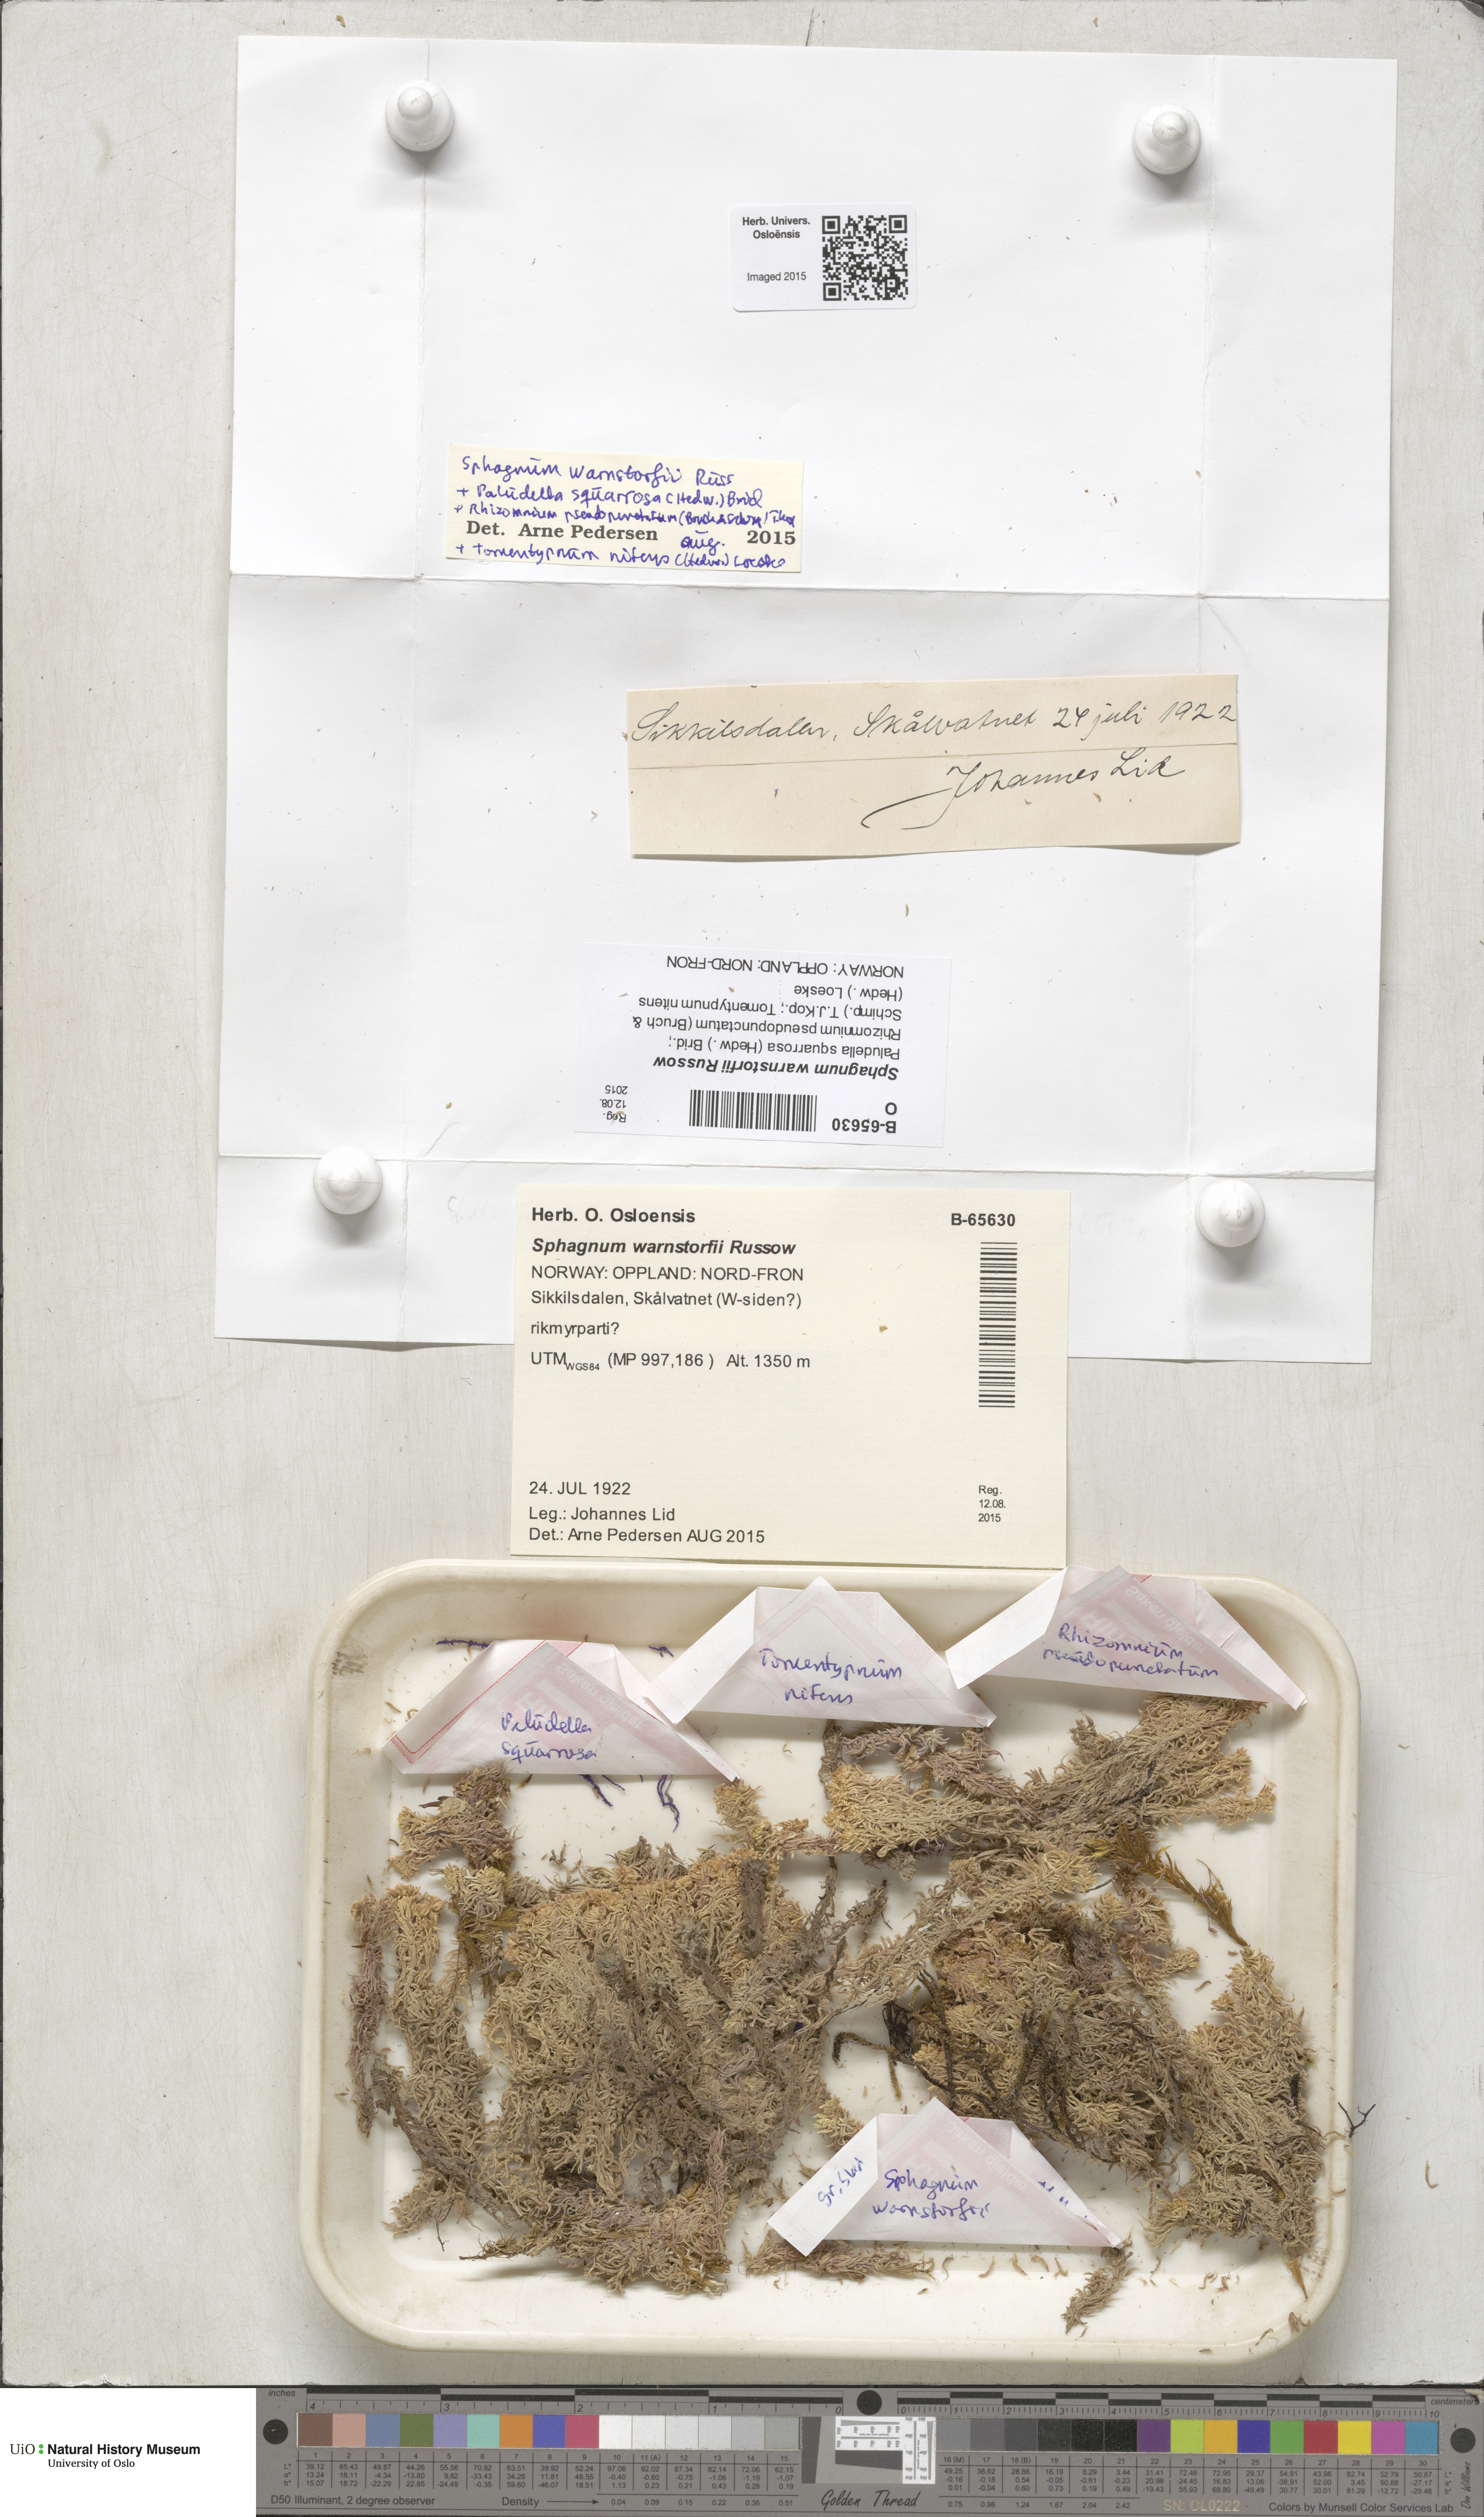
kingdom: Plantae
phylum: Bryophyta
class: Sphagnopsida
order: Sphagnales
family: Sphagnaceae
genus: Sphagnum
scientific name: Sphagnum warnstorfii
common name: Warnstorf's peat moss
